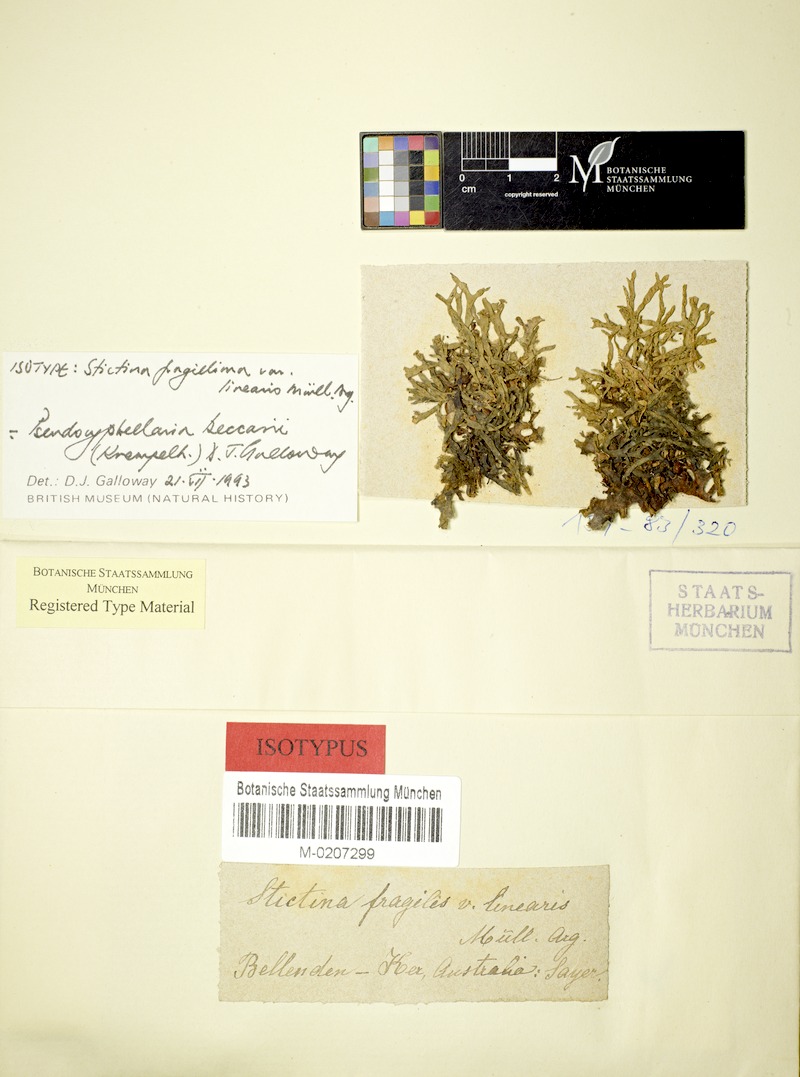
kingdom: Fungi
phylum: Ascomycota
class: Lecanoromycetes
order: Peltigerales
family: Lobariaceae
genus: Pseudocyphellaria
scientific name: Pseudocyphellaria sayeri
